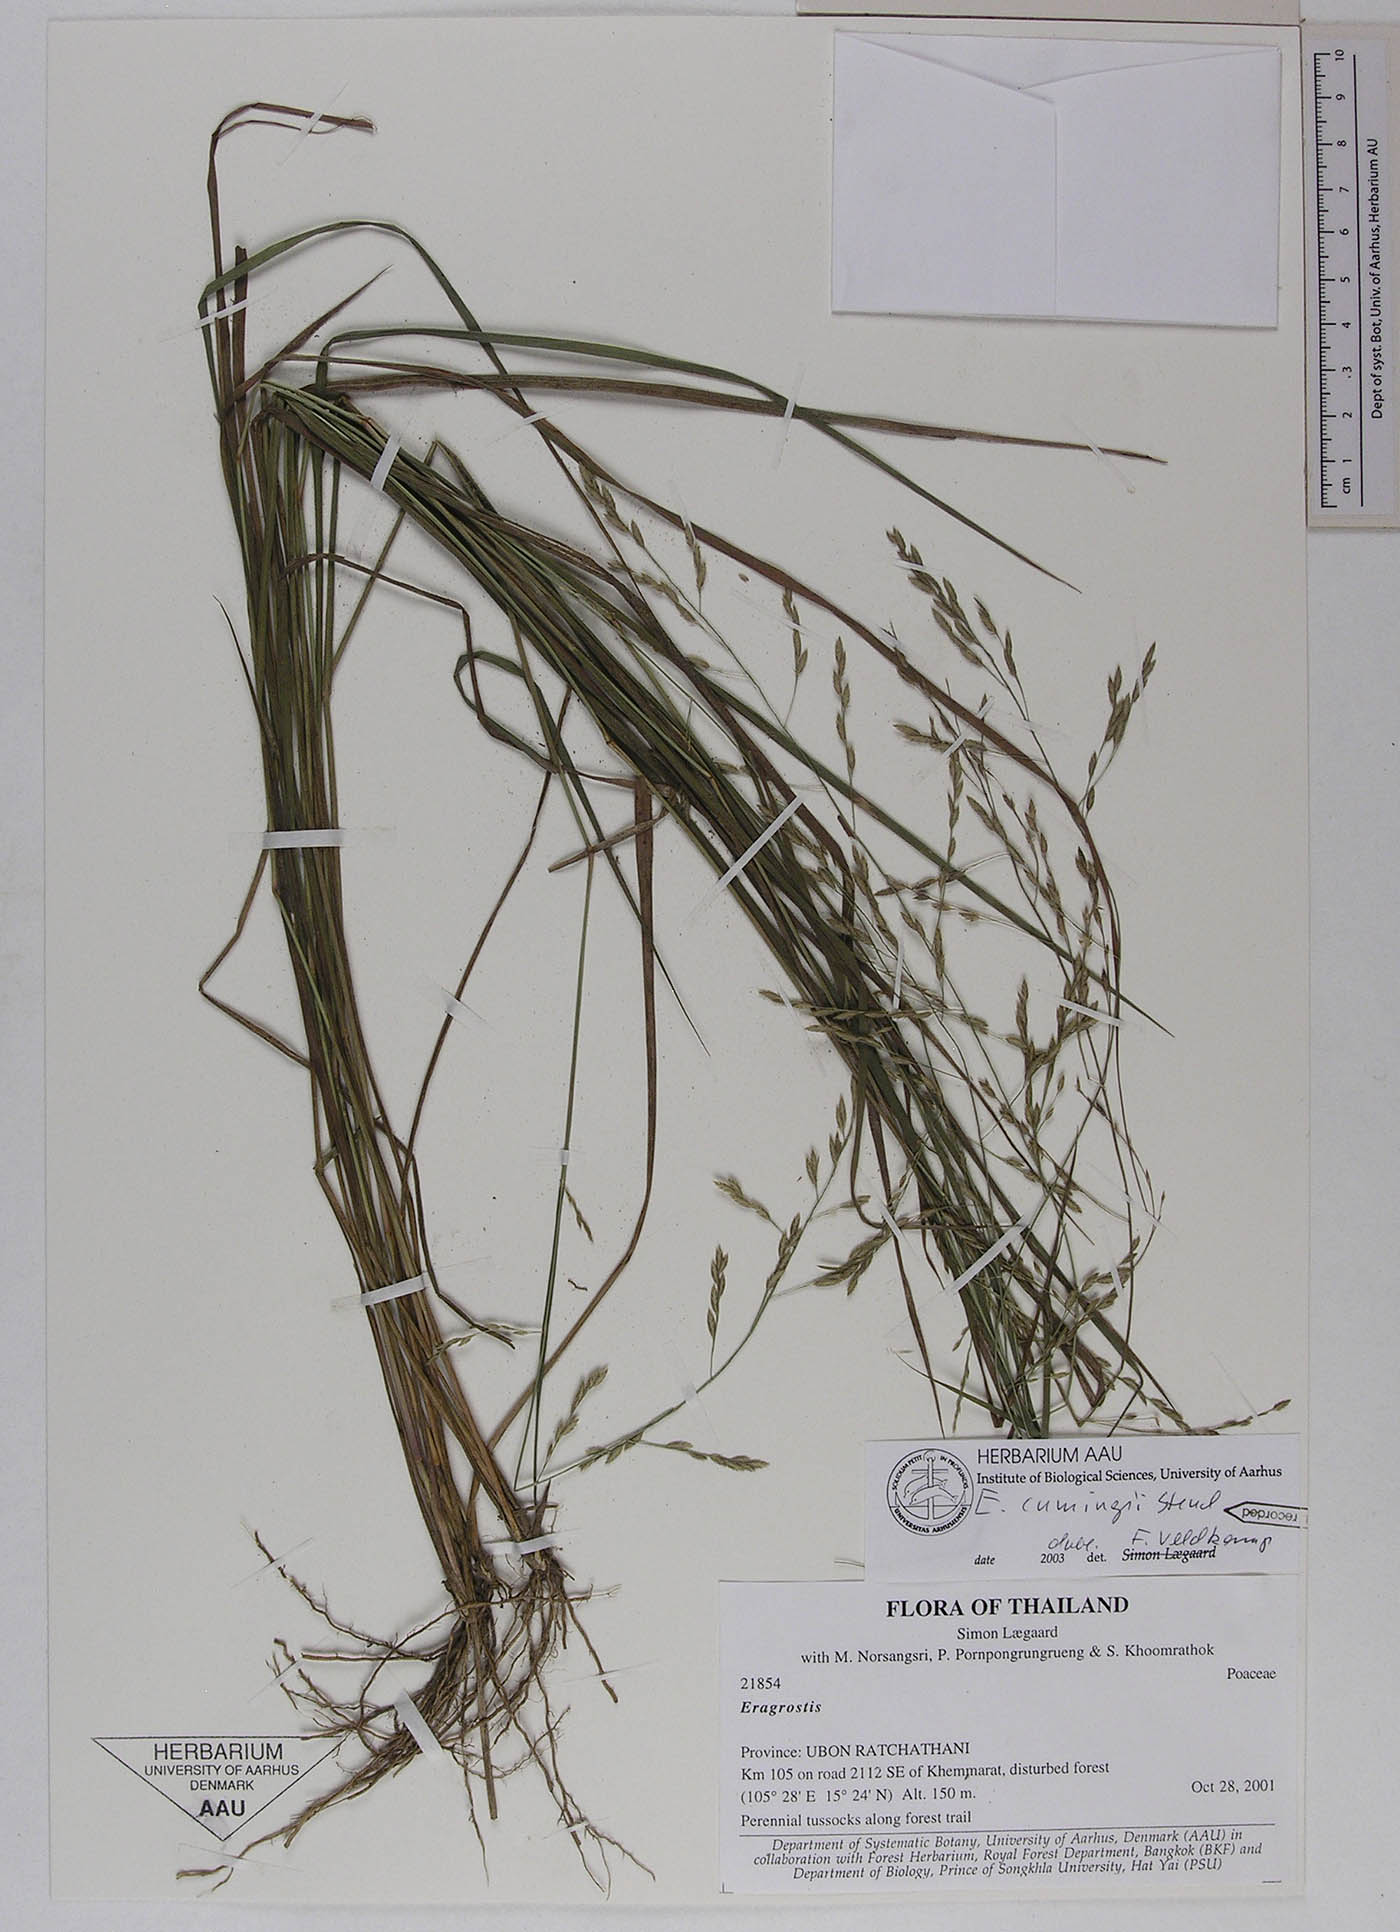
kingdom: Plantae
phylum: Tracheophyta
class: Liliopsida
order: Poales
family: Poaceae
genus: Eragrostis
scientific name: Eragrostis cumingii
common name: Cuming's lovegrass
